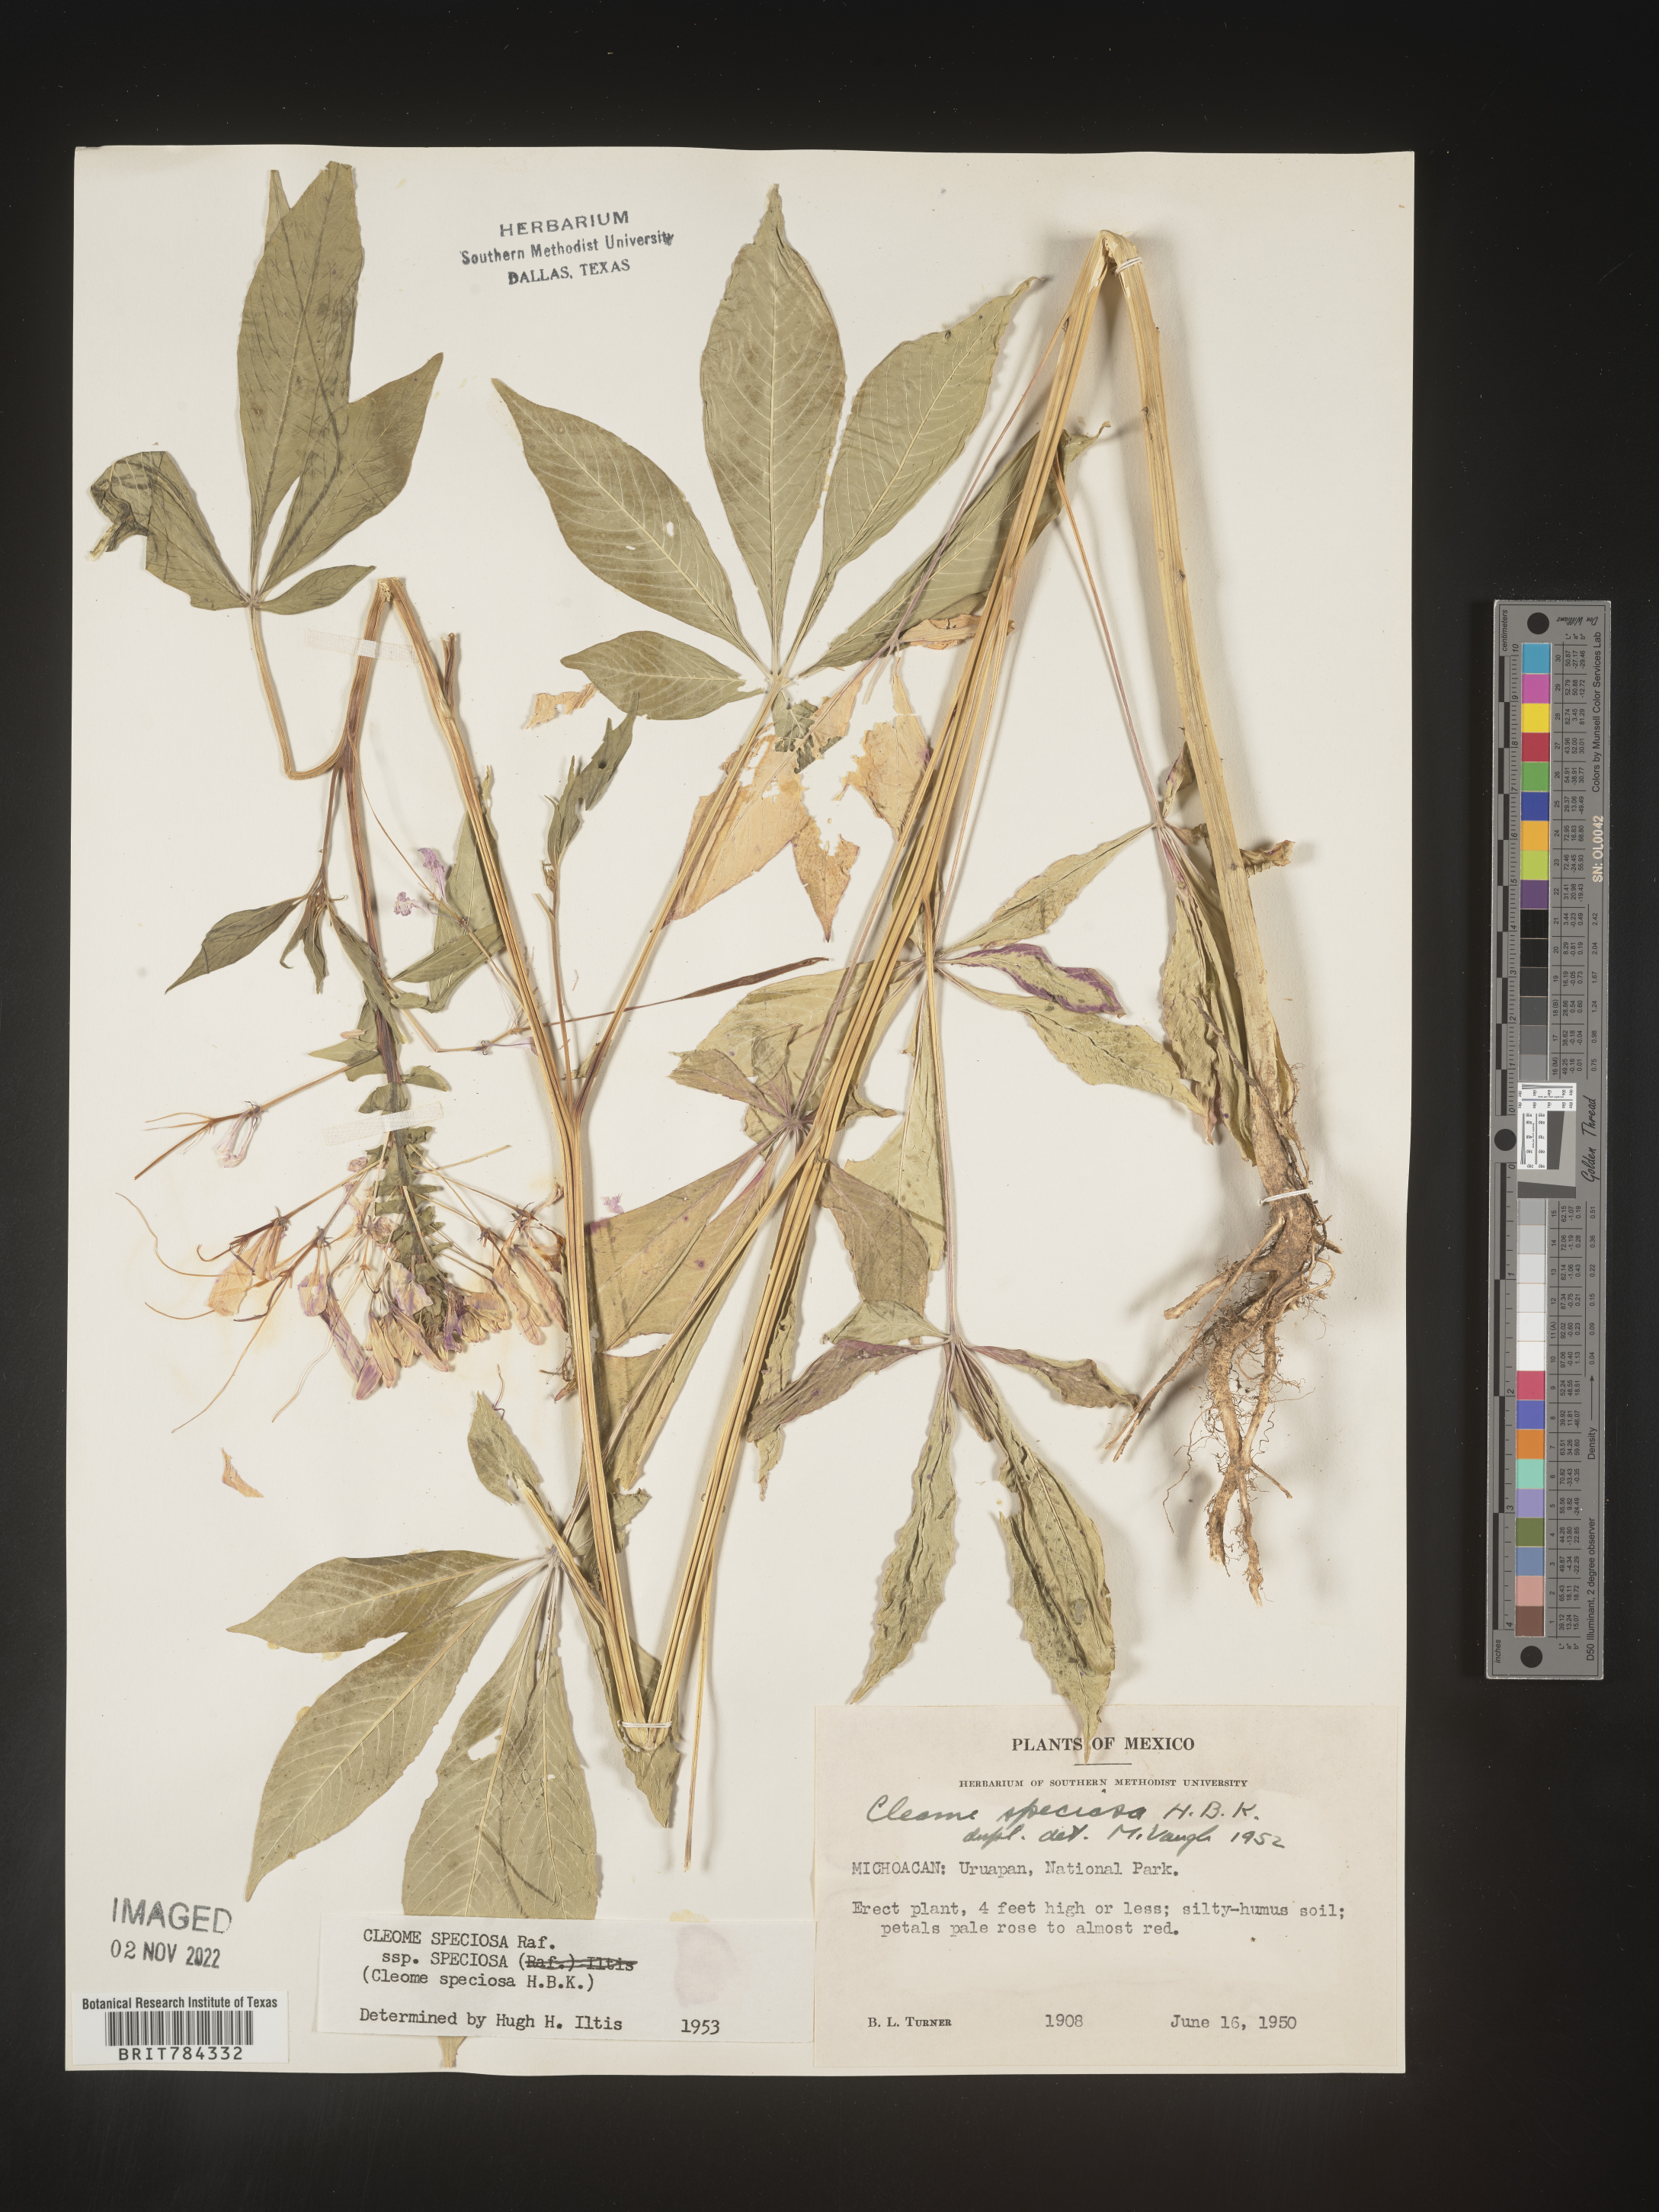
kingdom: Plantae
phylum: Tracheophyta
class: Magnoliopsida
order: Brassicales
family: Cleomaceae
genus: Cleome
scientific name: Cleome
